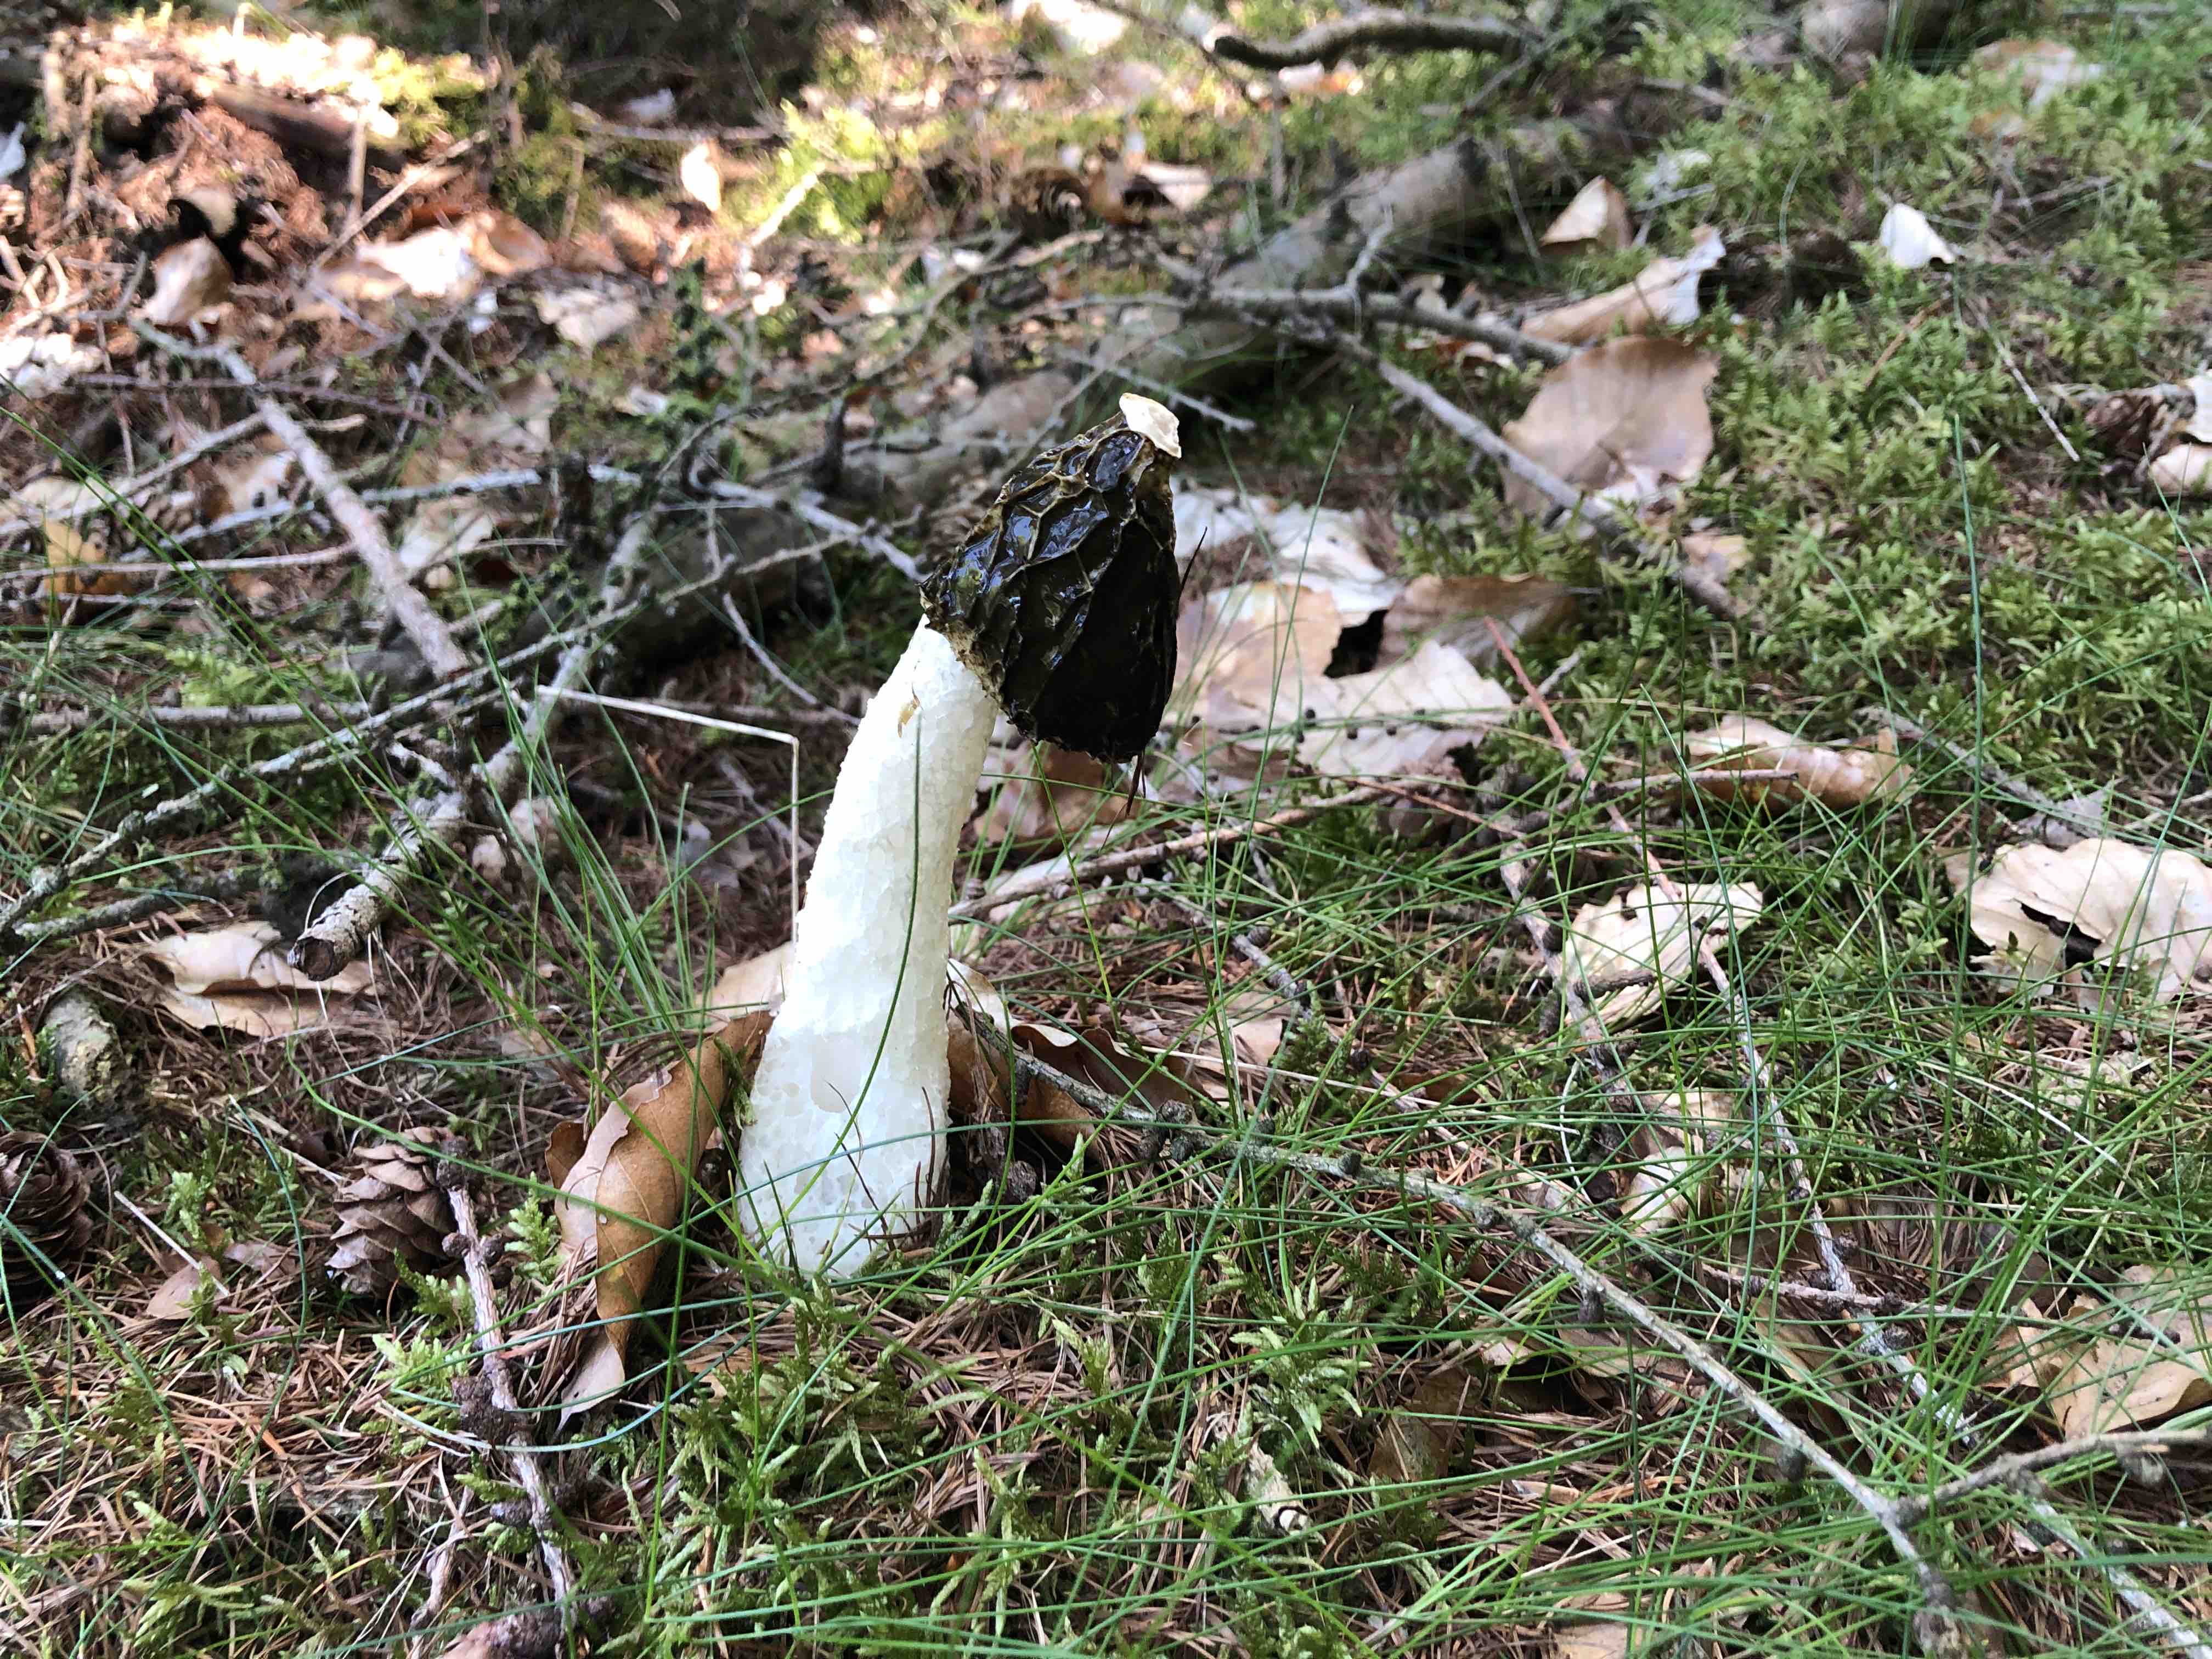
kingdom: Fungi
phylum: Basidiomycota
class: Agaricomycetes
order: Phallales
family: Phallaceae
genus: Phallus
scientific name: Phallus impudicus
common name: almindelig stinksvamp
